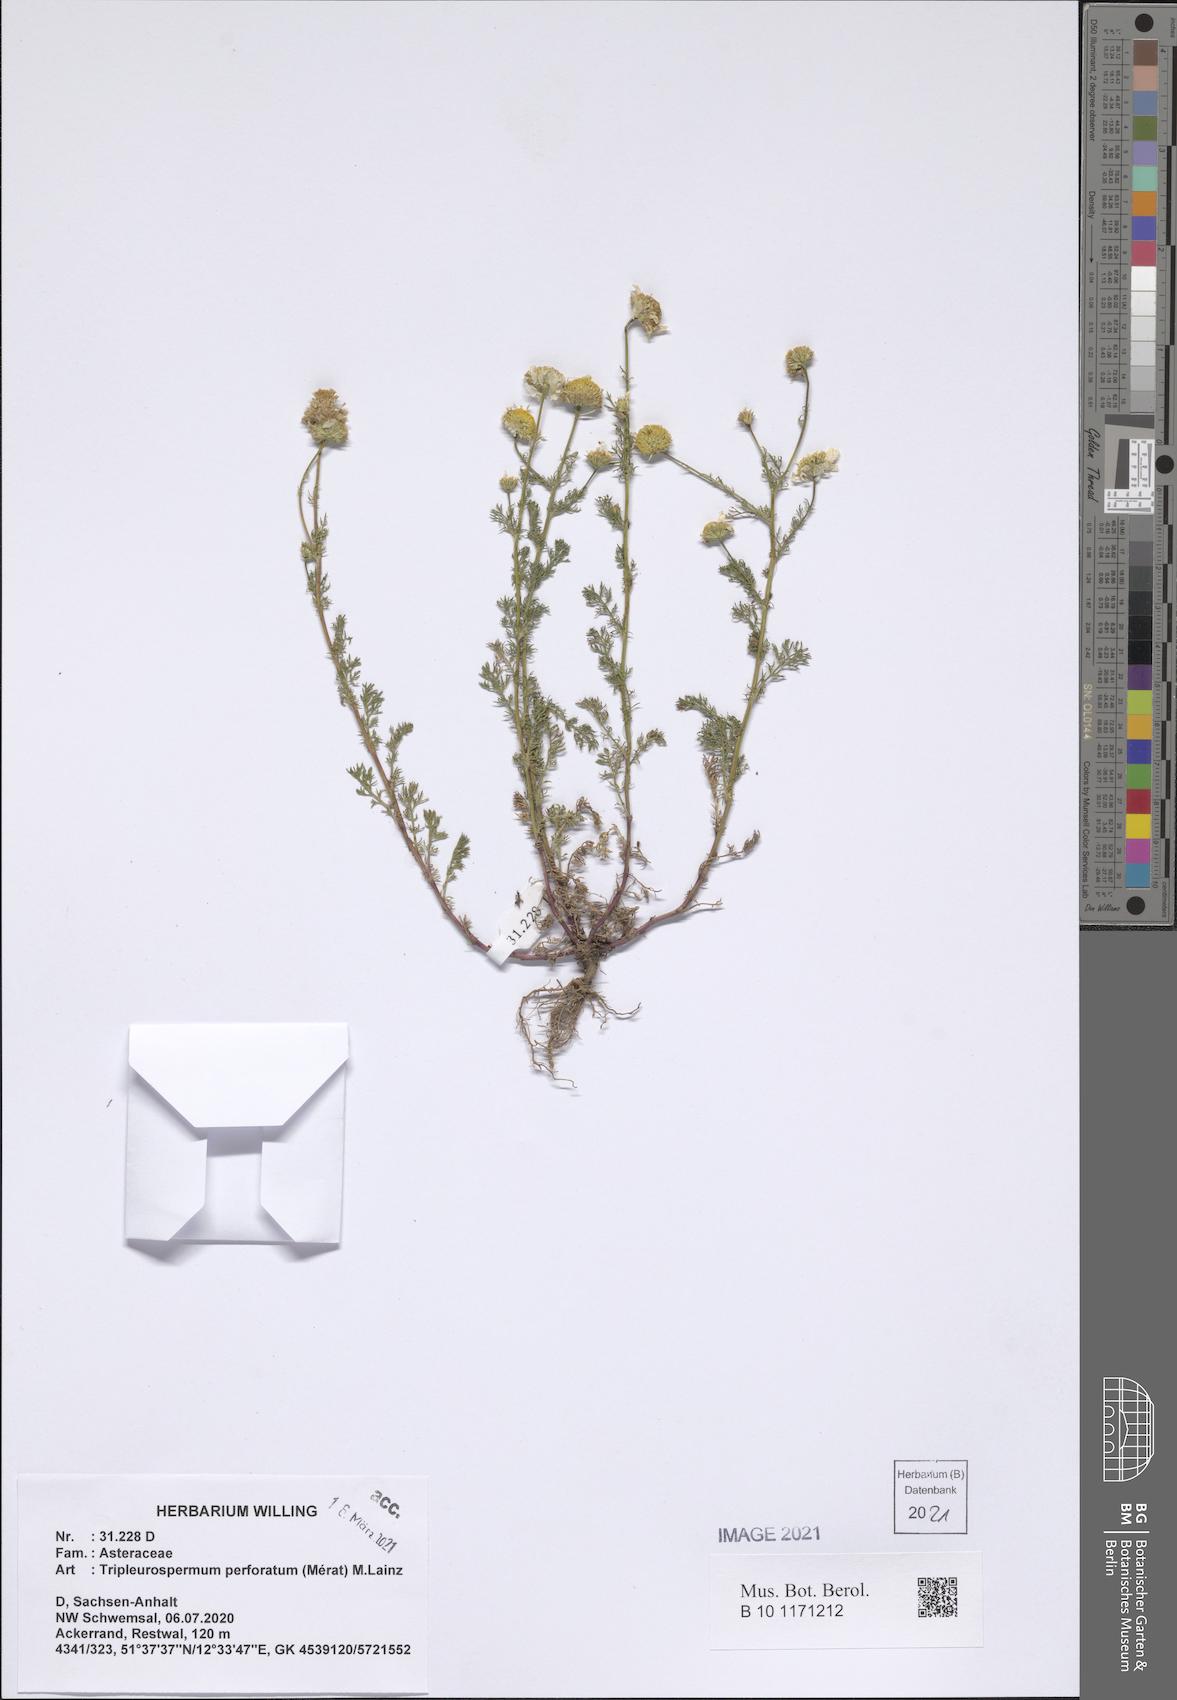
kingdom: Plantae
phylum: Tracheophyta
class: Magnoliopsida
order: Asterales
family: Asteraceae
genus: Tripleurospermum
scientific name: Tripleurospermum inodorum
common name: Scentless mayweed
